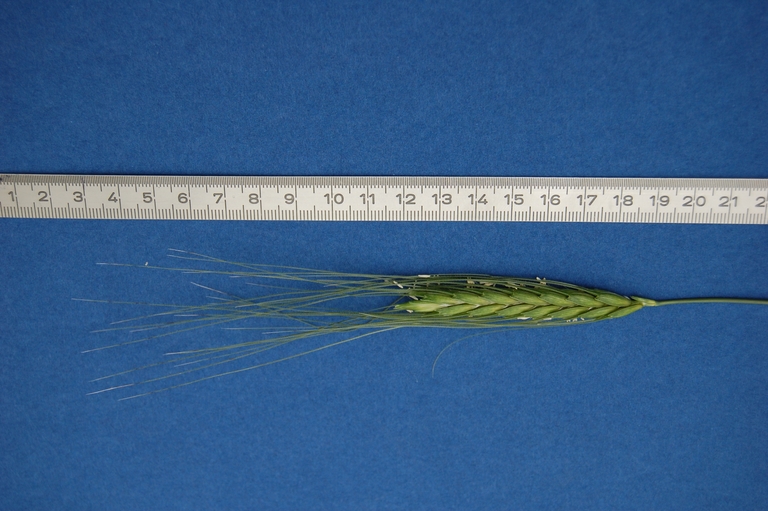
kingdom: Plantae
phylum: Tracheophyta
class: Liliopsida
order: Poales
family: Poaceae
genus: Triticum
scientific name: Triticum timopheevii
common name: Timopheev's wheat
